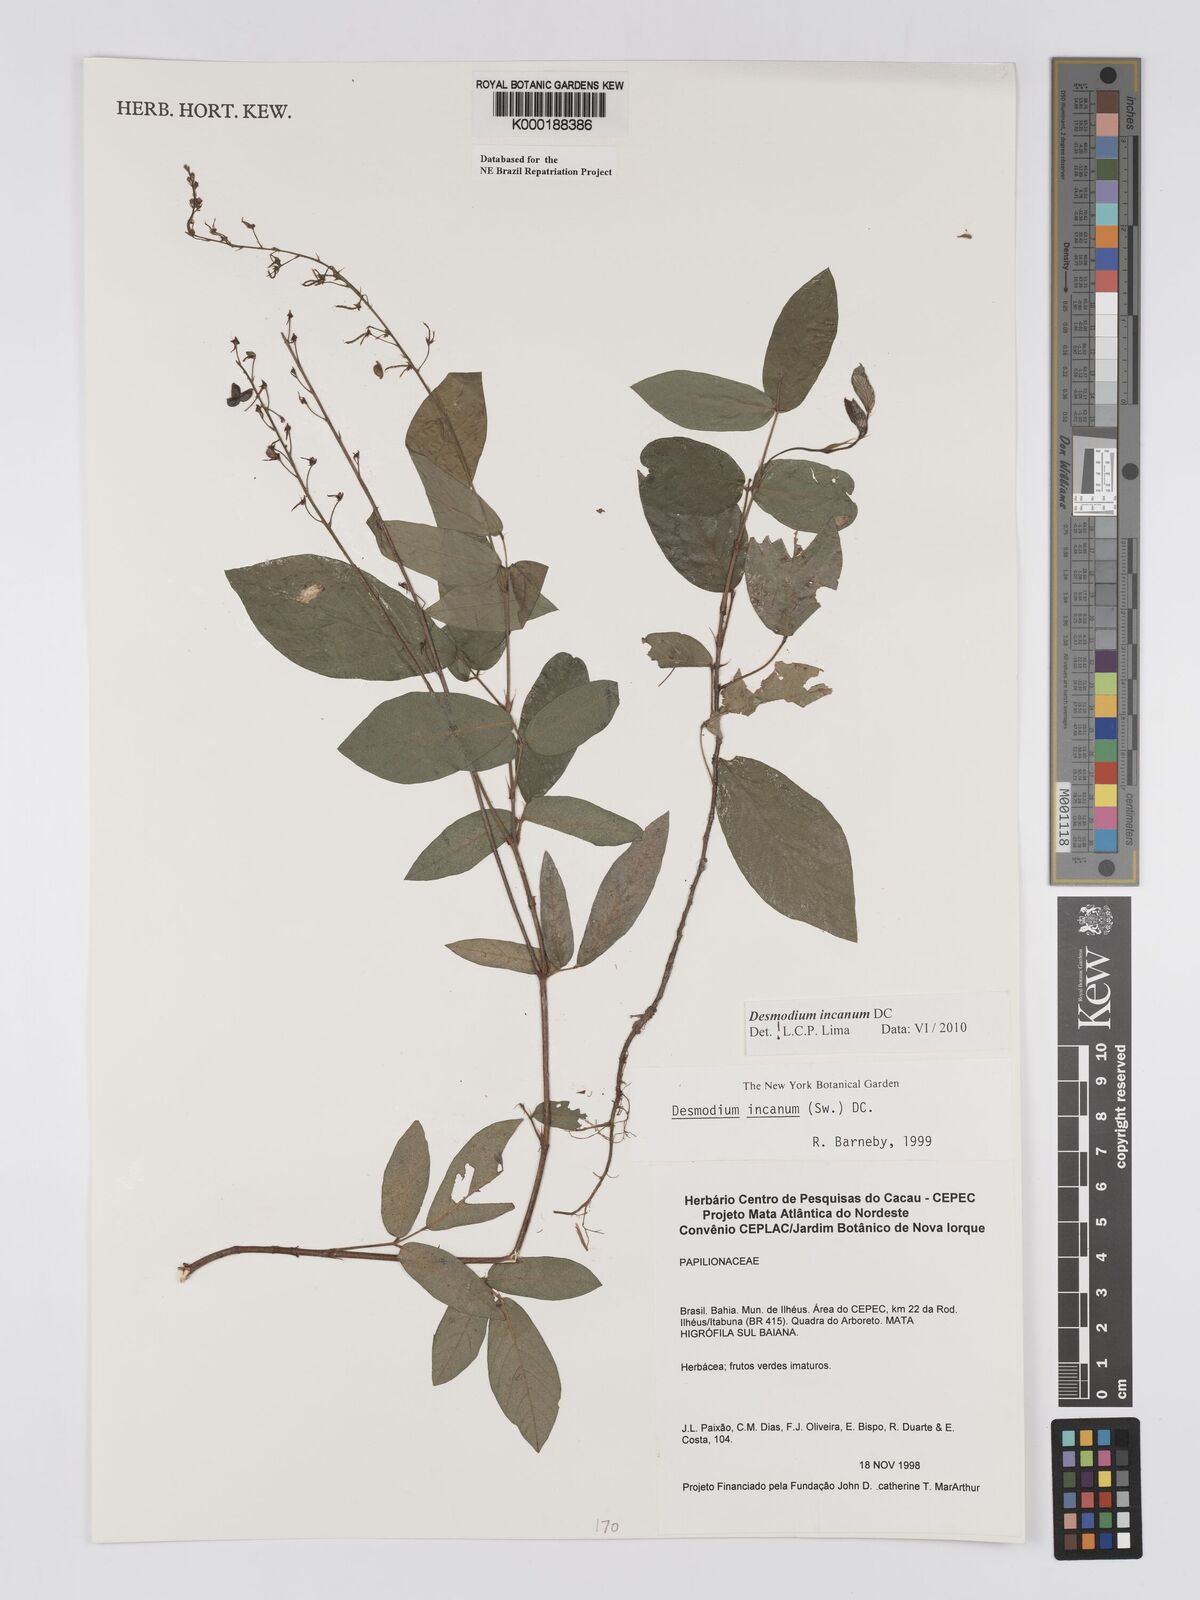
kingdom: Plantae
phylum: Tracheophyta
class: Magnoliopsida
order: Fabales
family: Fabaceae
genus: Desmodium
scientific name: Desmodium incanum
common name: Tickclover
